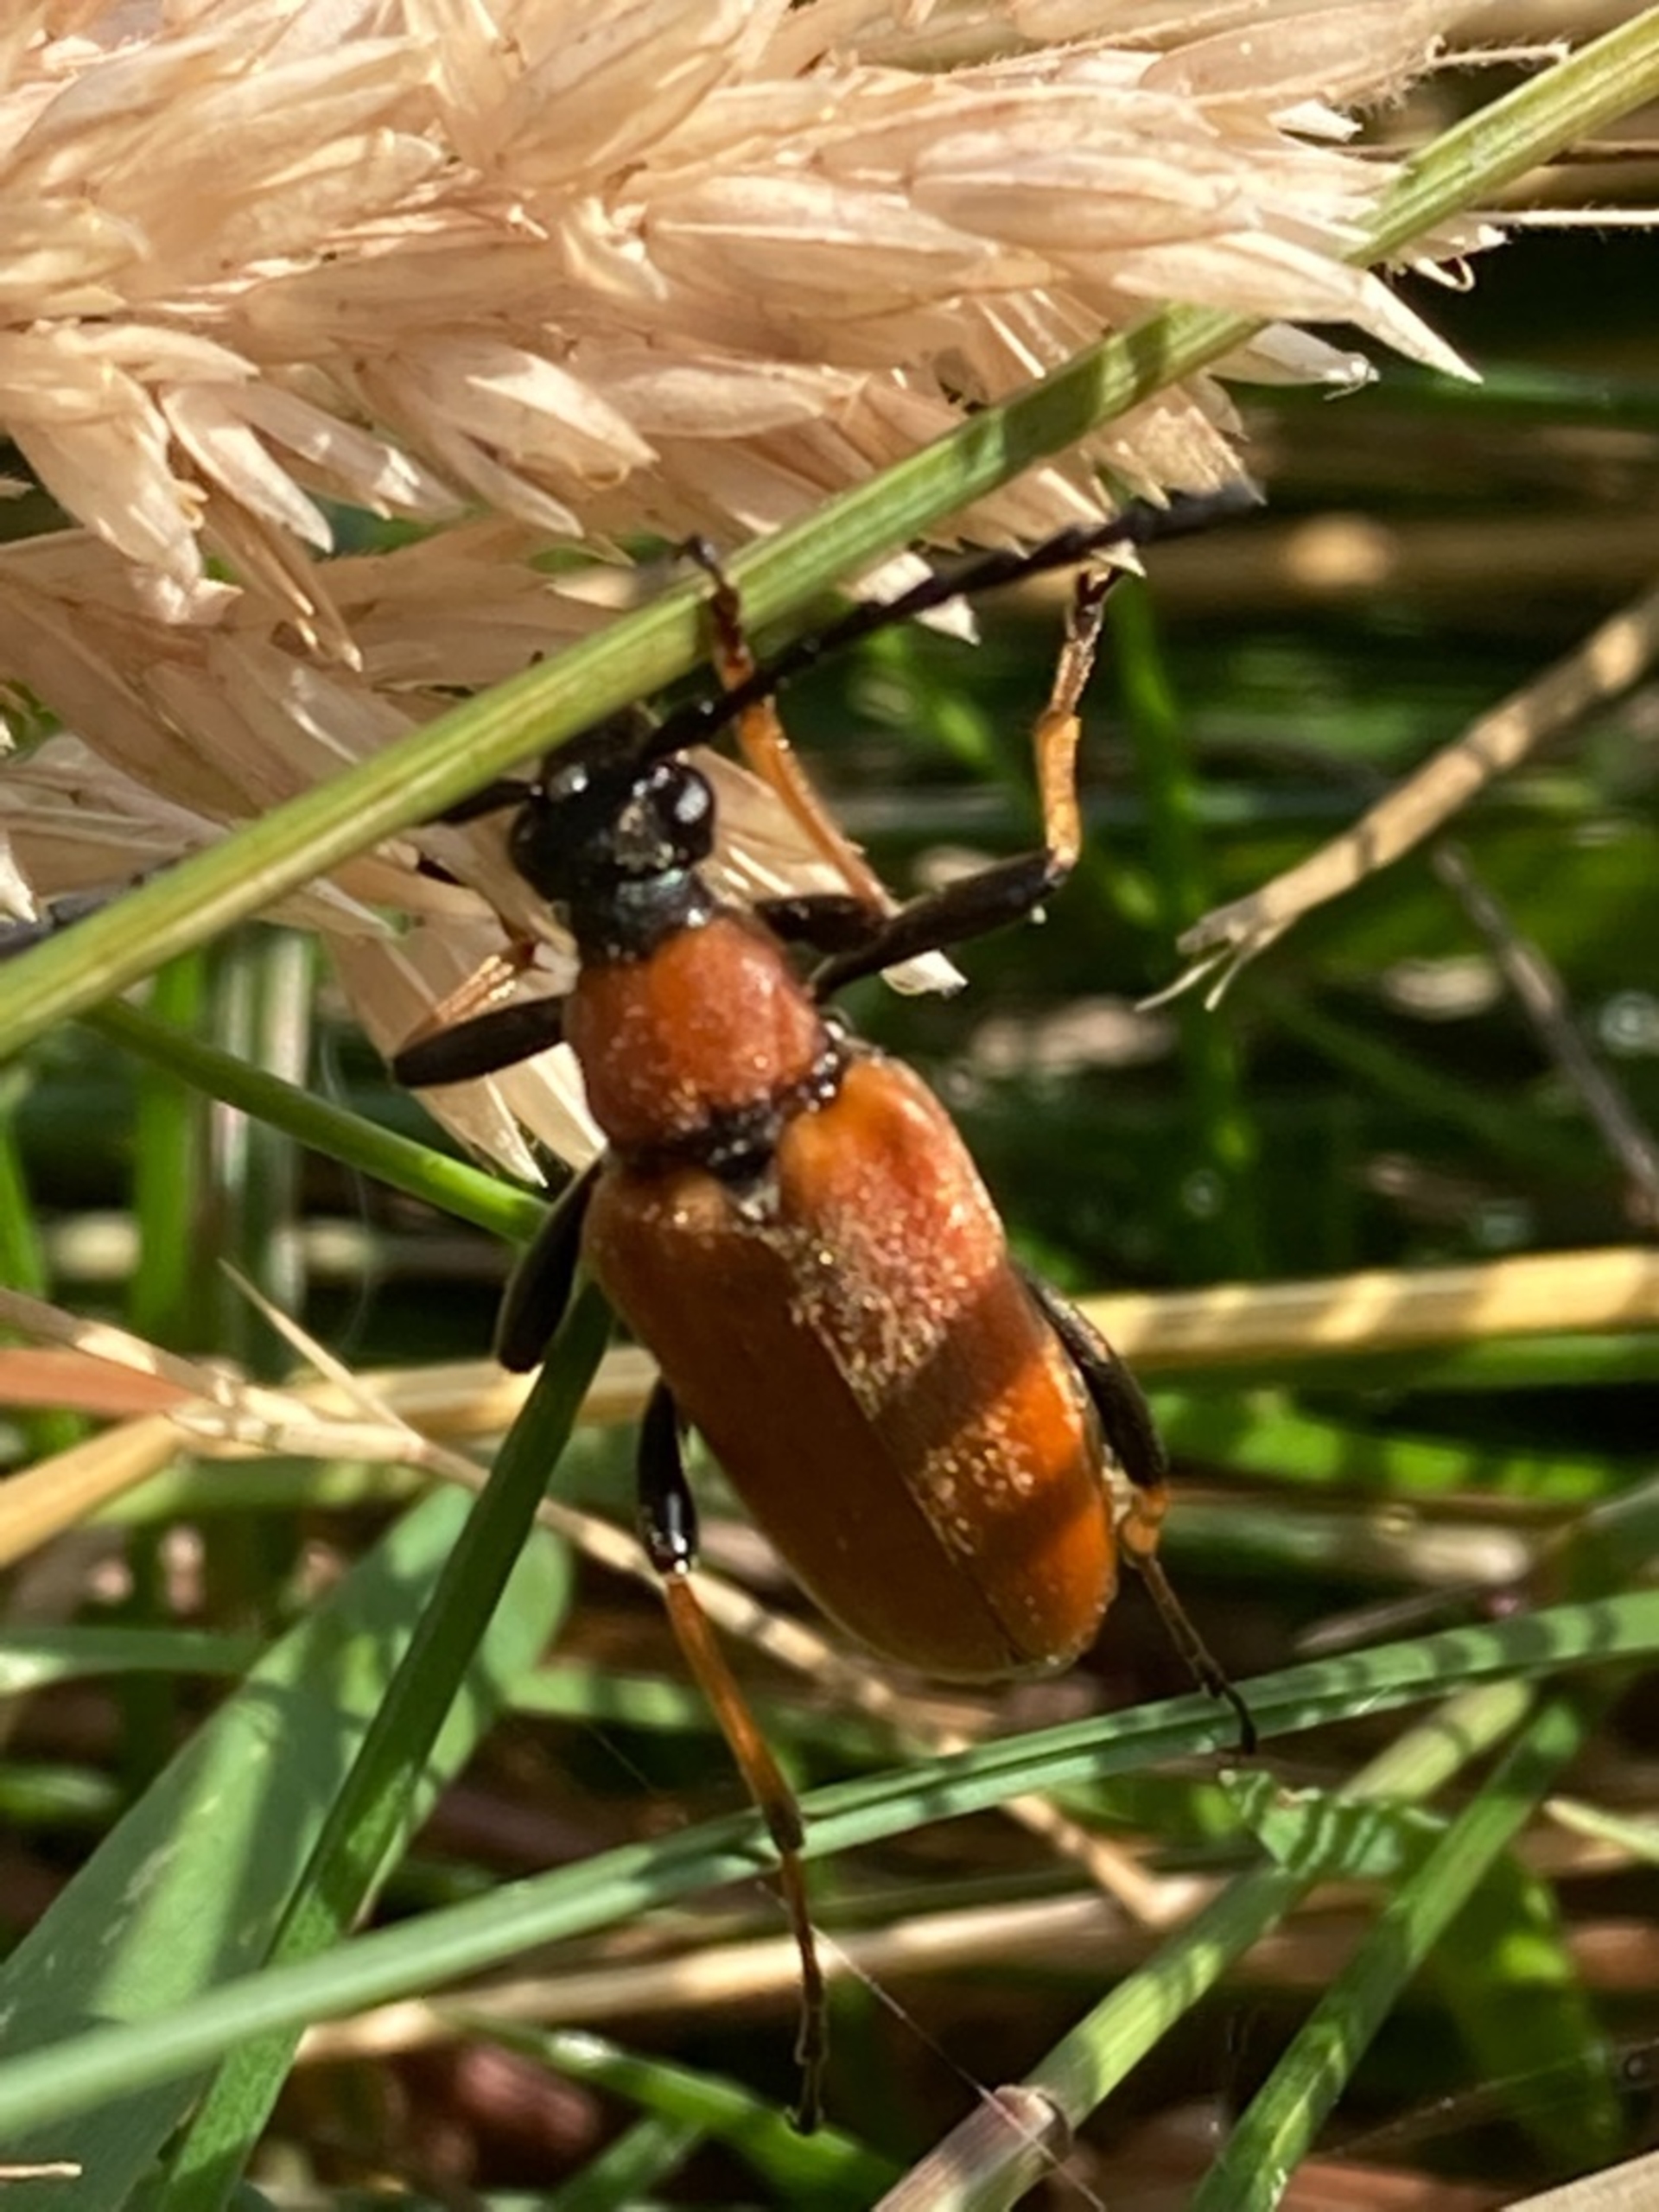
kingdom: Animalia
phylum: Arthropoda
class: Insecta
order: Coleoptera
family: Cerambycidae
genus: Stictoleptura
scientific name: Stictoleptura rubra
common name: Rød blomsterbuk
